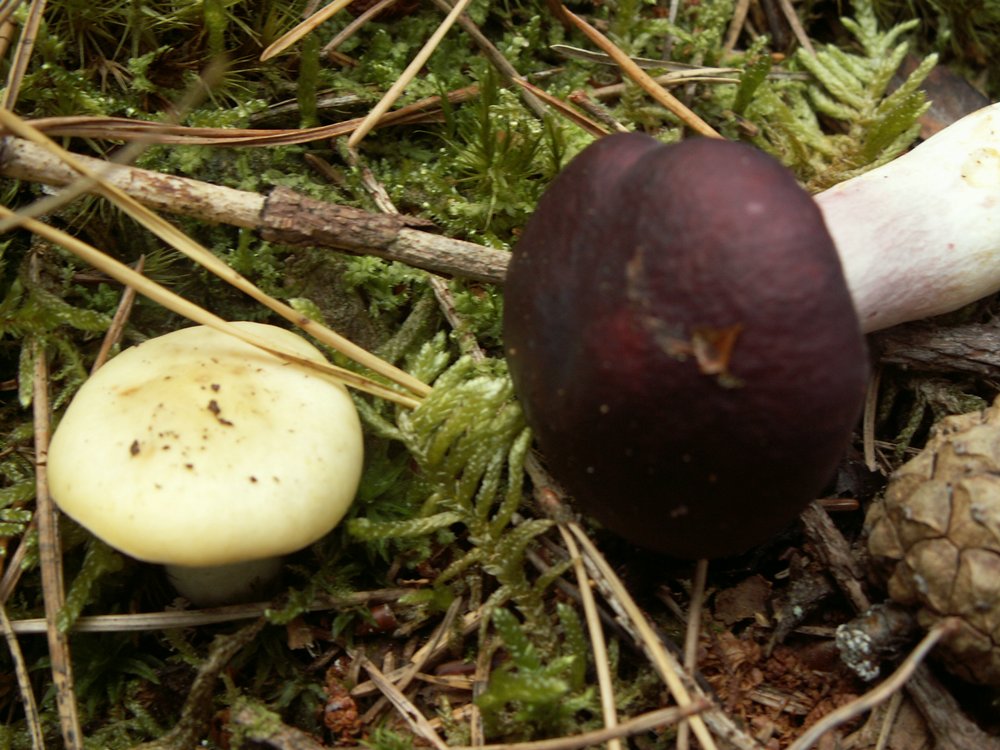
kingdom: Fungi
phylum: Basidiomycota
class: Agaricomycetes
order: Russulales
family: Russulaceae
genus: Russula
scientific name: Russula sardonia
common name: Primrose brittlegill
